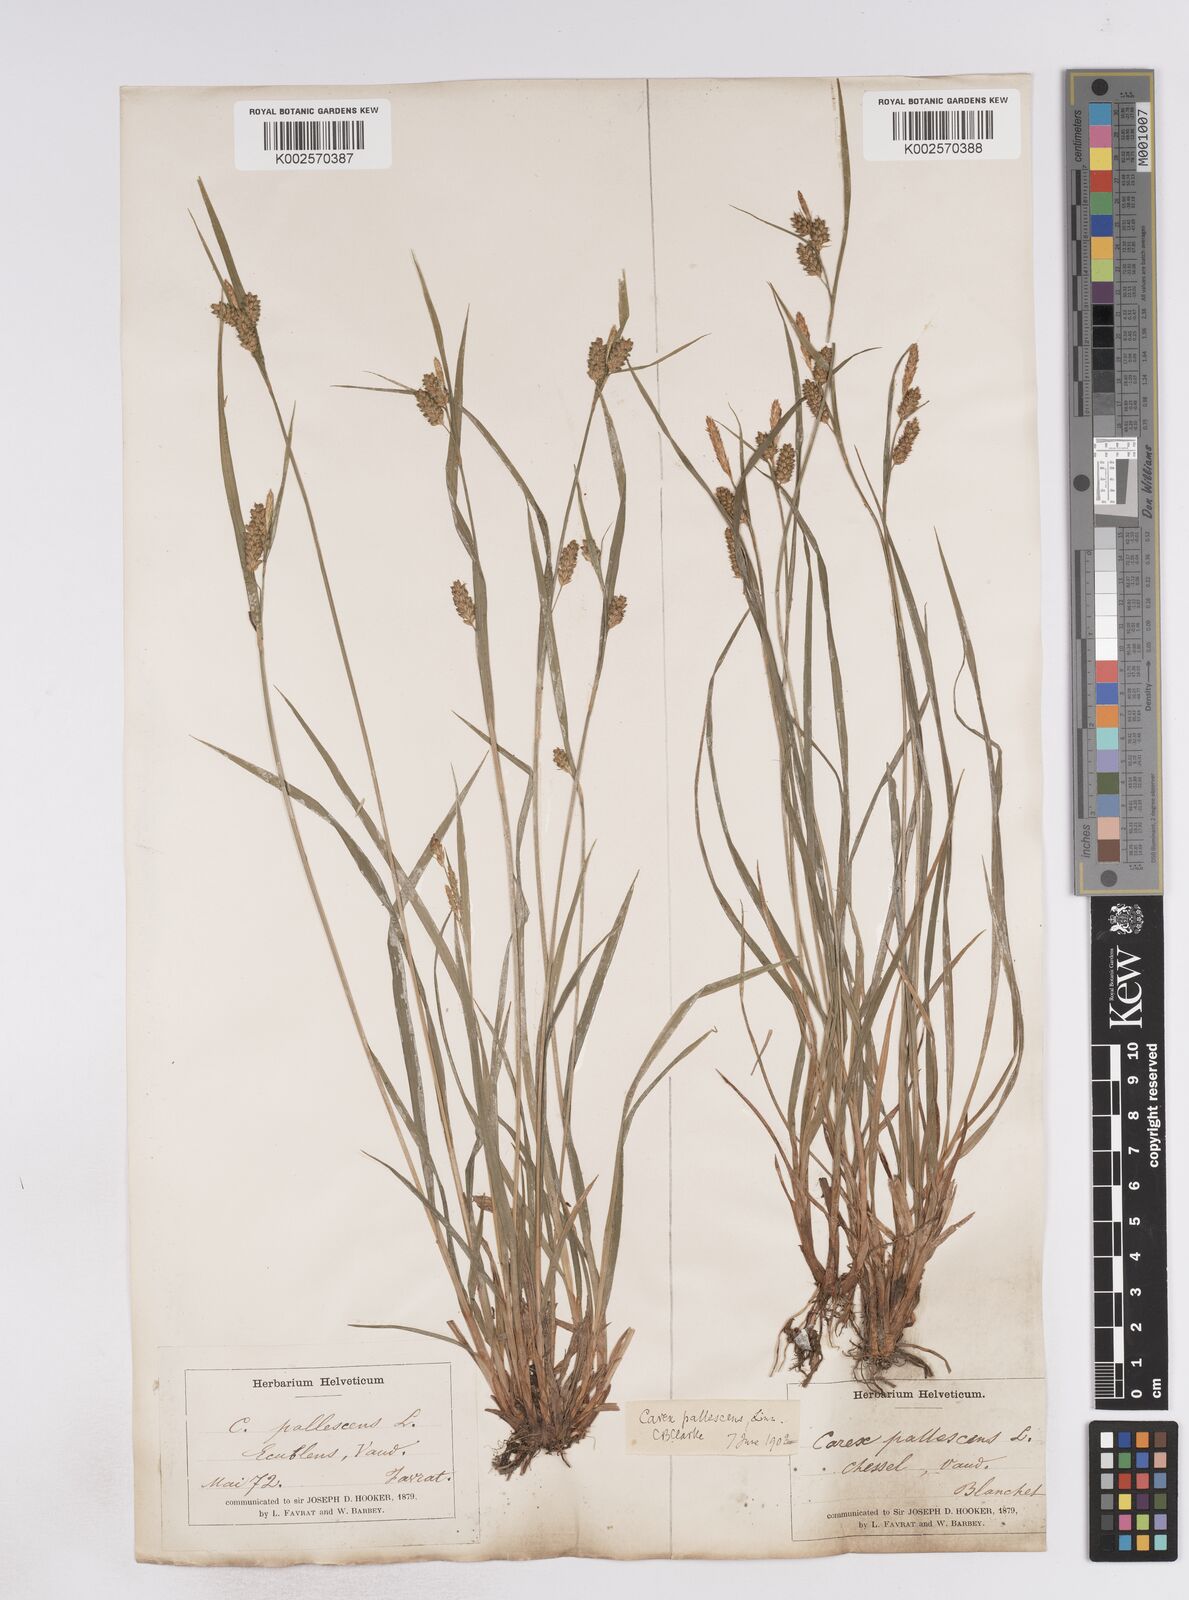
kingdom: Plantae
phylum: Tracheophyta
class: Liliopsida
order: Poales
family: Cyperaceae
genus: Carex
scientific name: Carex pallescens
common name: Pale sedge
